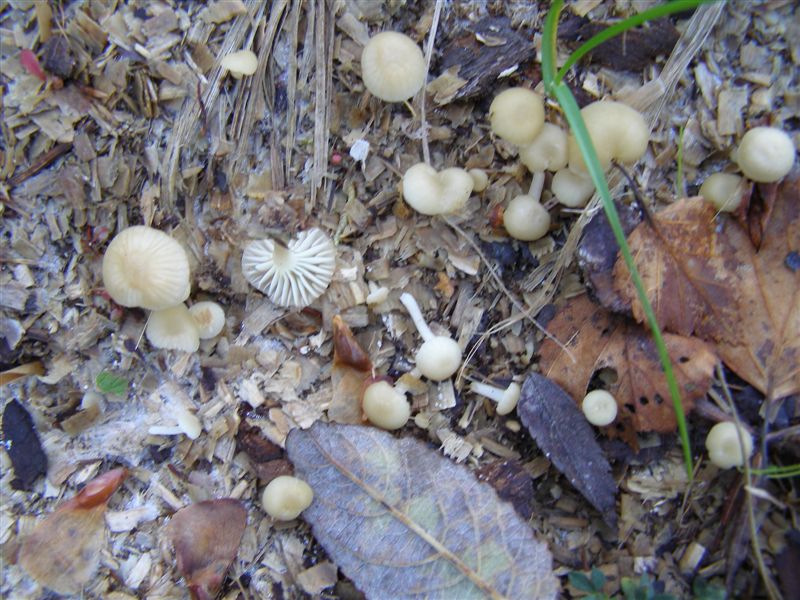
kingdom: Fungi
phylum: Basidiomycota
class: Agaricomycetes
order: Agaricales
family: Hygrophoraceae
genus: Chrysomphalina
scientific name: Chrysomphalina grossula
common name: stød-gyldenblad
